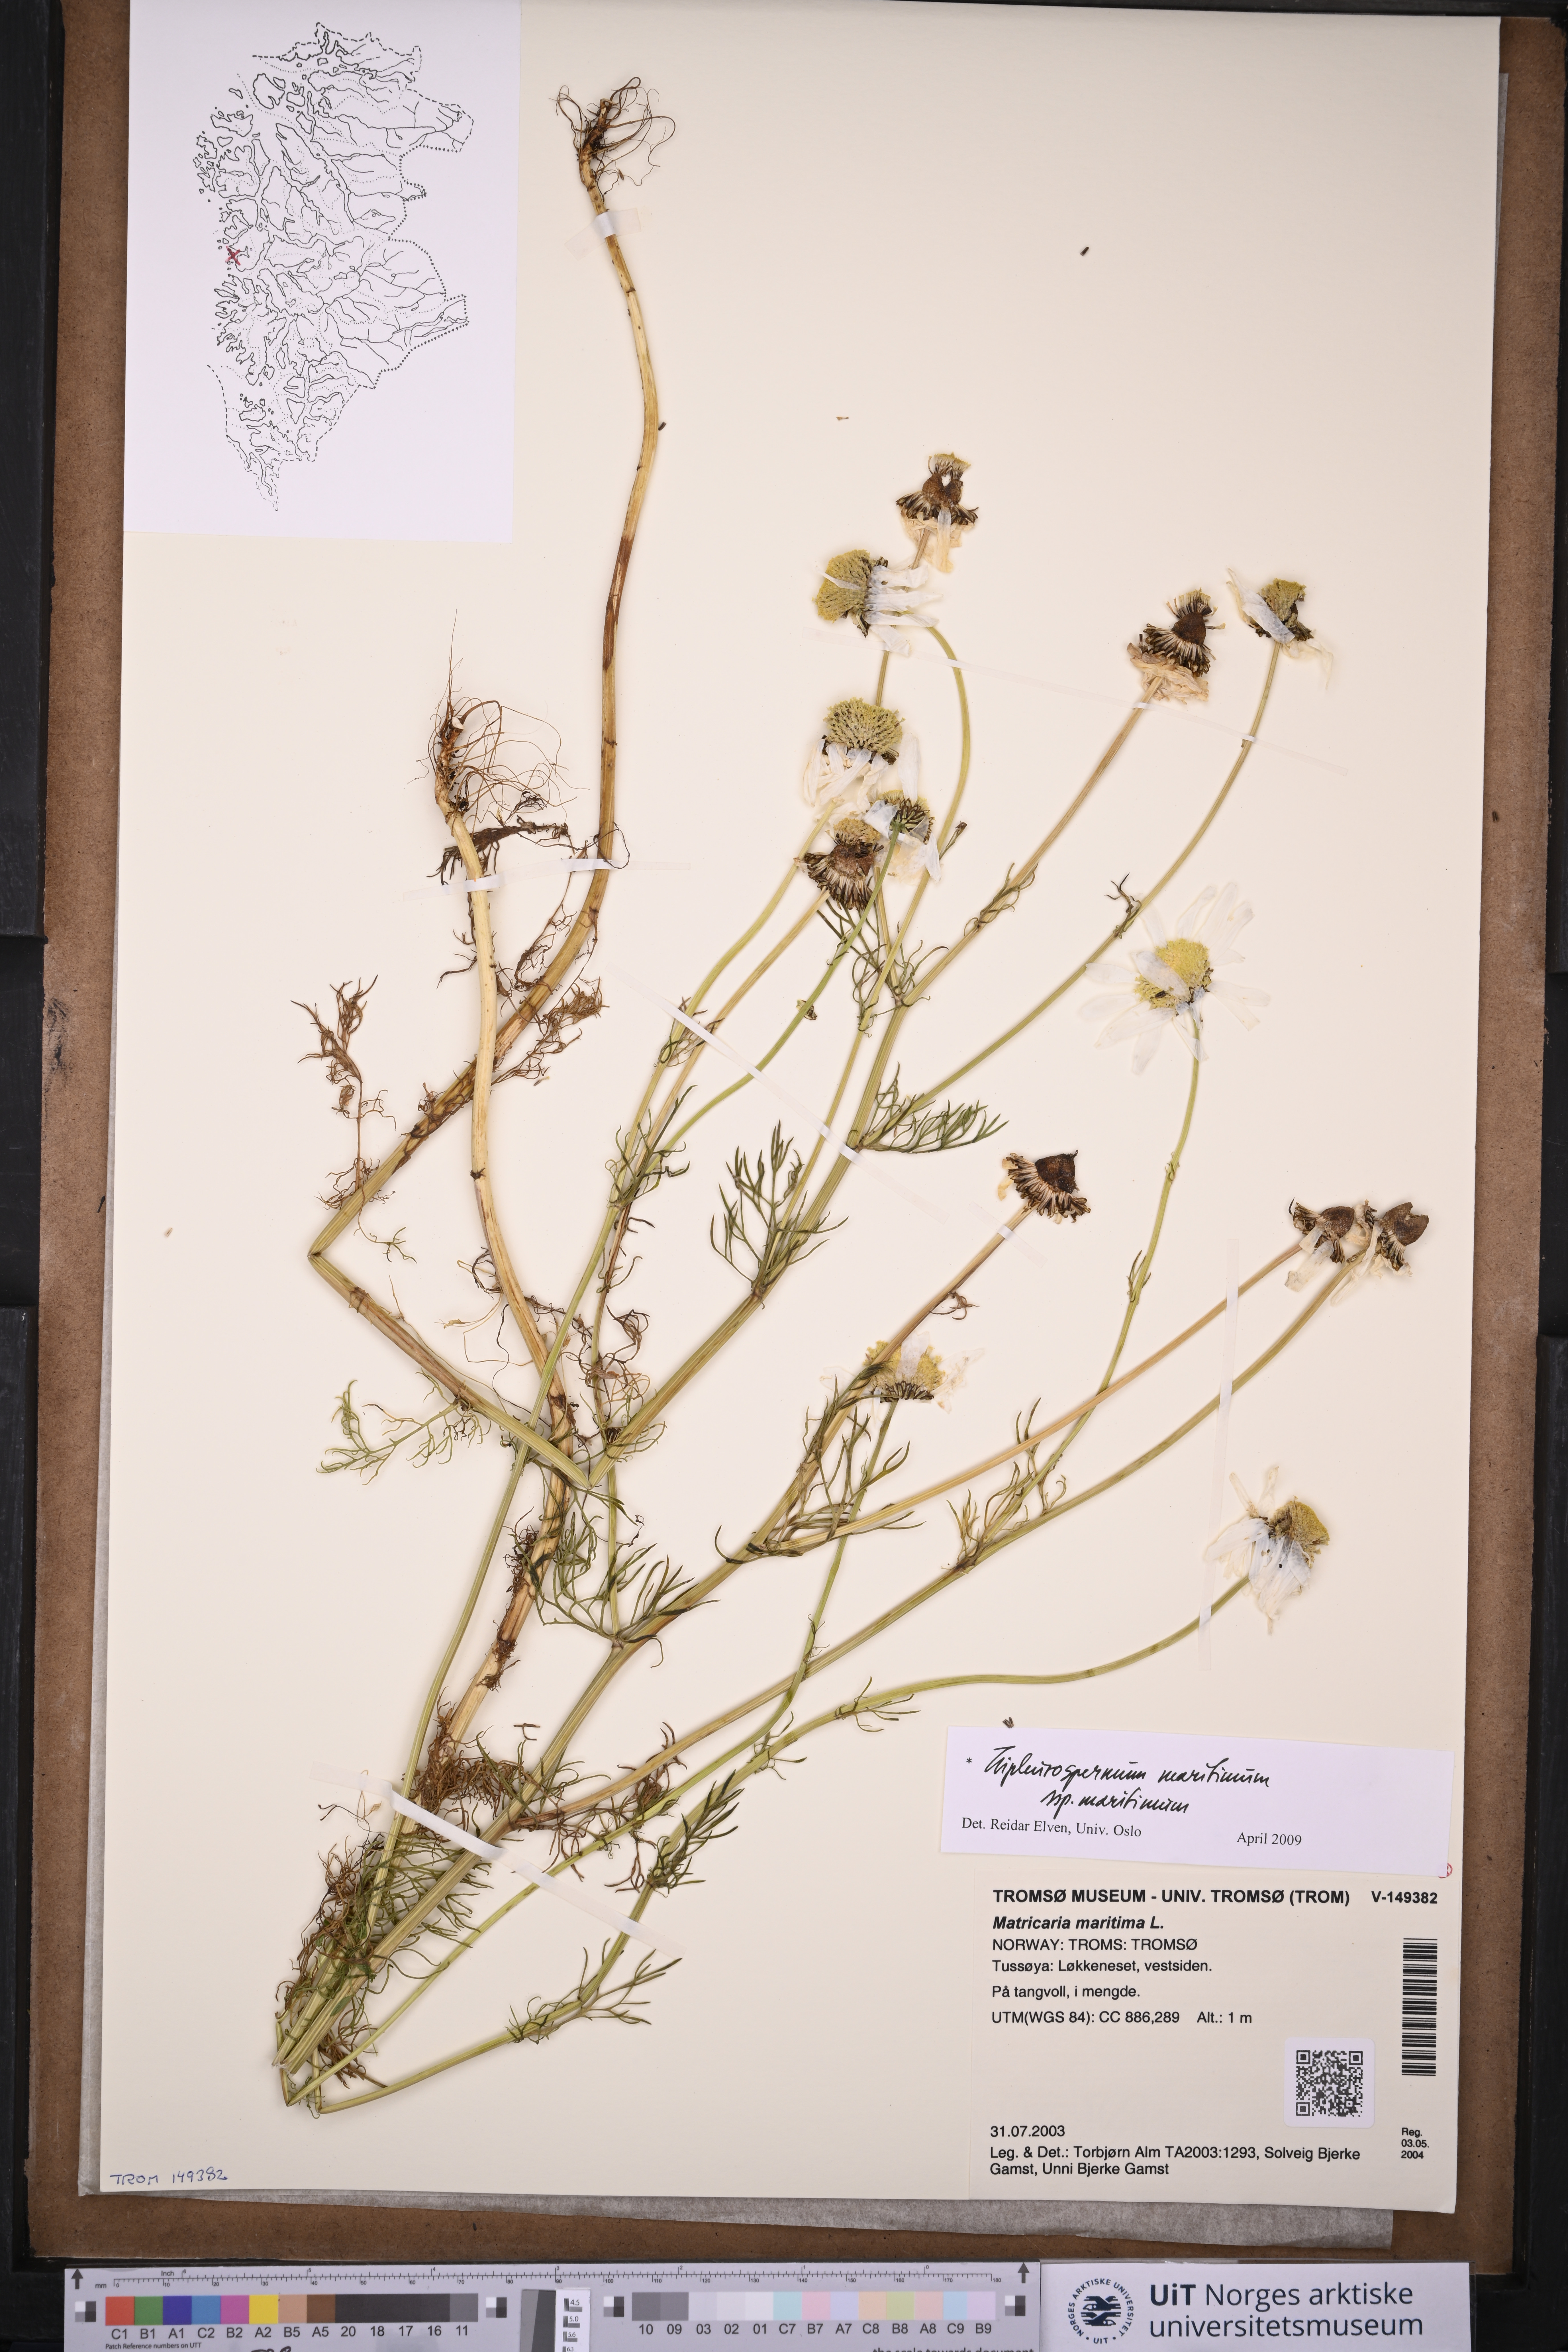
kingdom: Plantae
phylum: Tracheophyta
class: Magnoliopsida
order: Asterales
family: Asteraceae
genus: Tripleurospermum
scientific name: Tripleurospermum maritimum
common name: Sea mayweed
